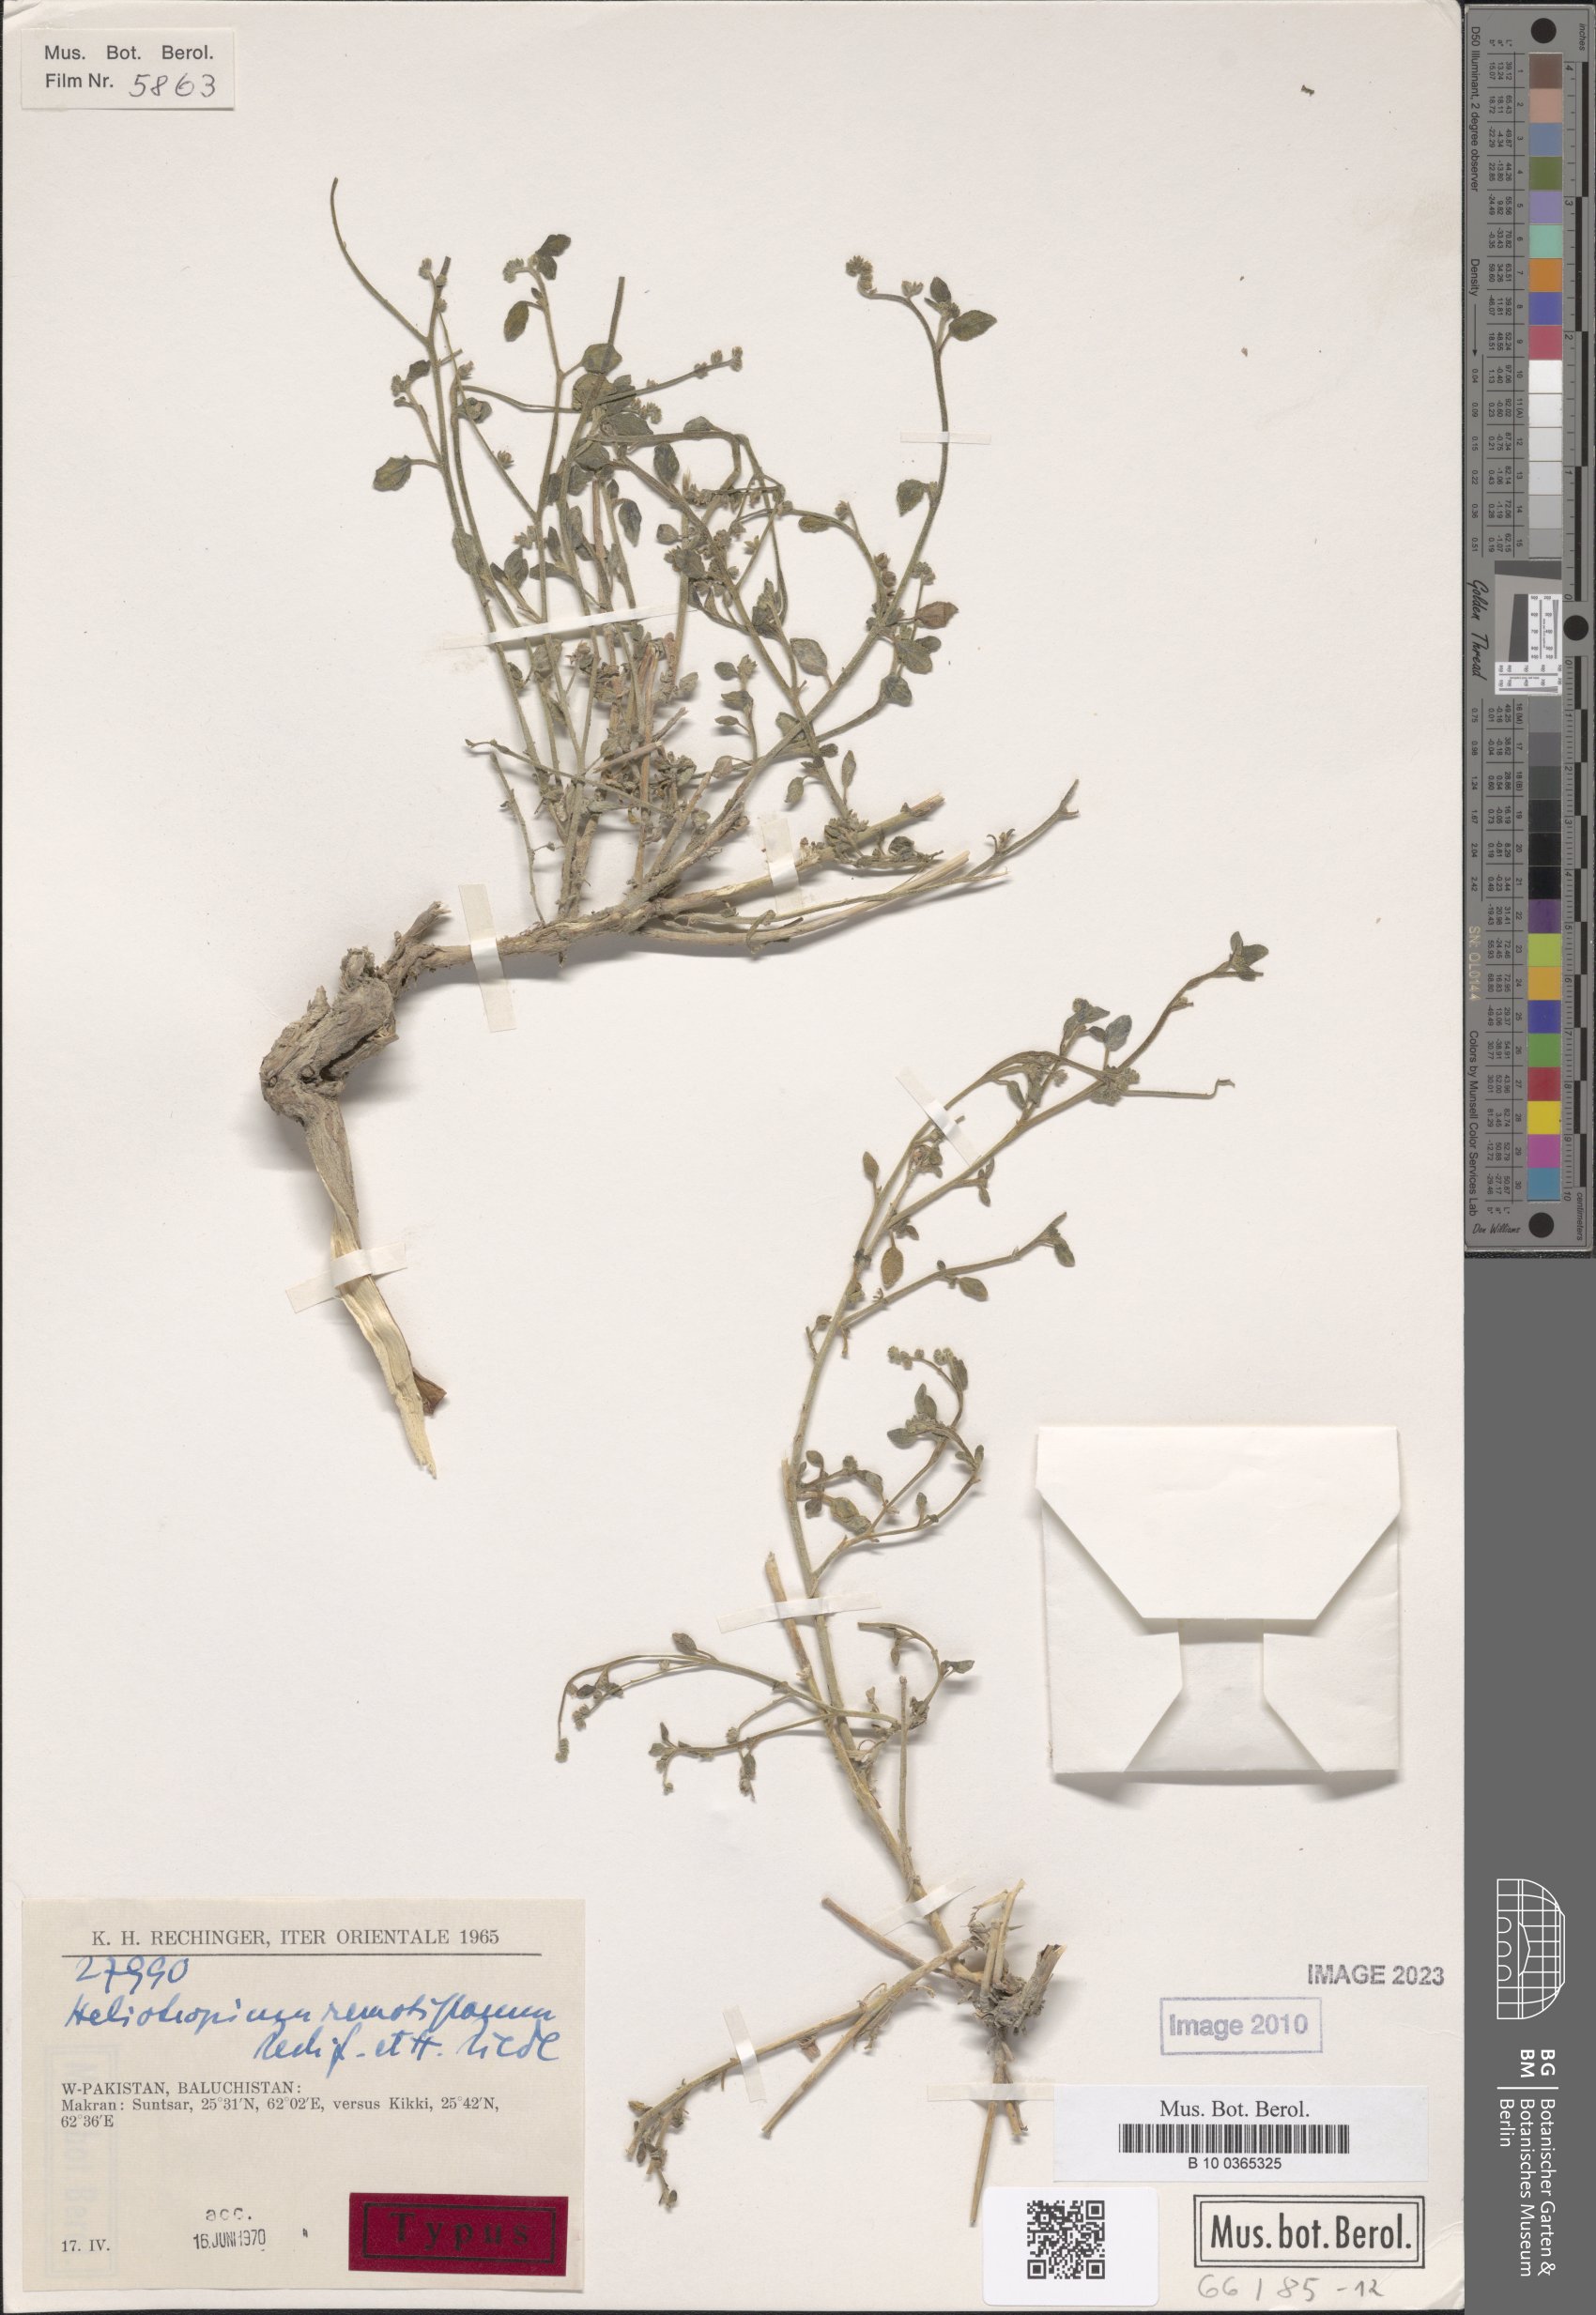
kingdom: Plantae
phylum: Tracheophyta
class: Magnoliopsida
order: Boraginales
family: Heliotropiaceae
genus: Heliotropium
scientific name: Heliotropium remotiflorum
